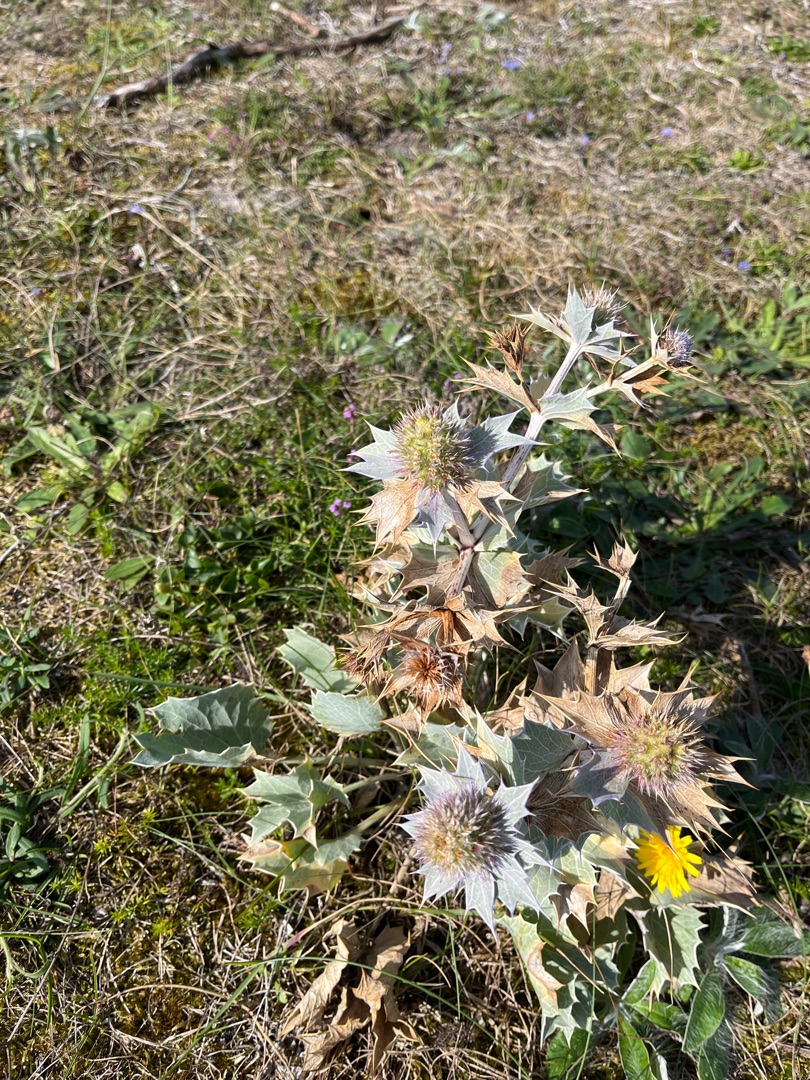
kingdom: Plantae
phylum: Tracheophyta
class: Magnoliopsida
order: Apiales
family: Apiaceae
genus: Eryngium
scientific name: Eryngium maritimum
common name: Strand-mandstro
